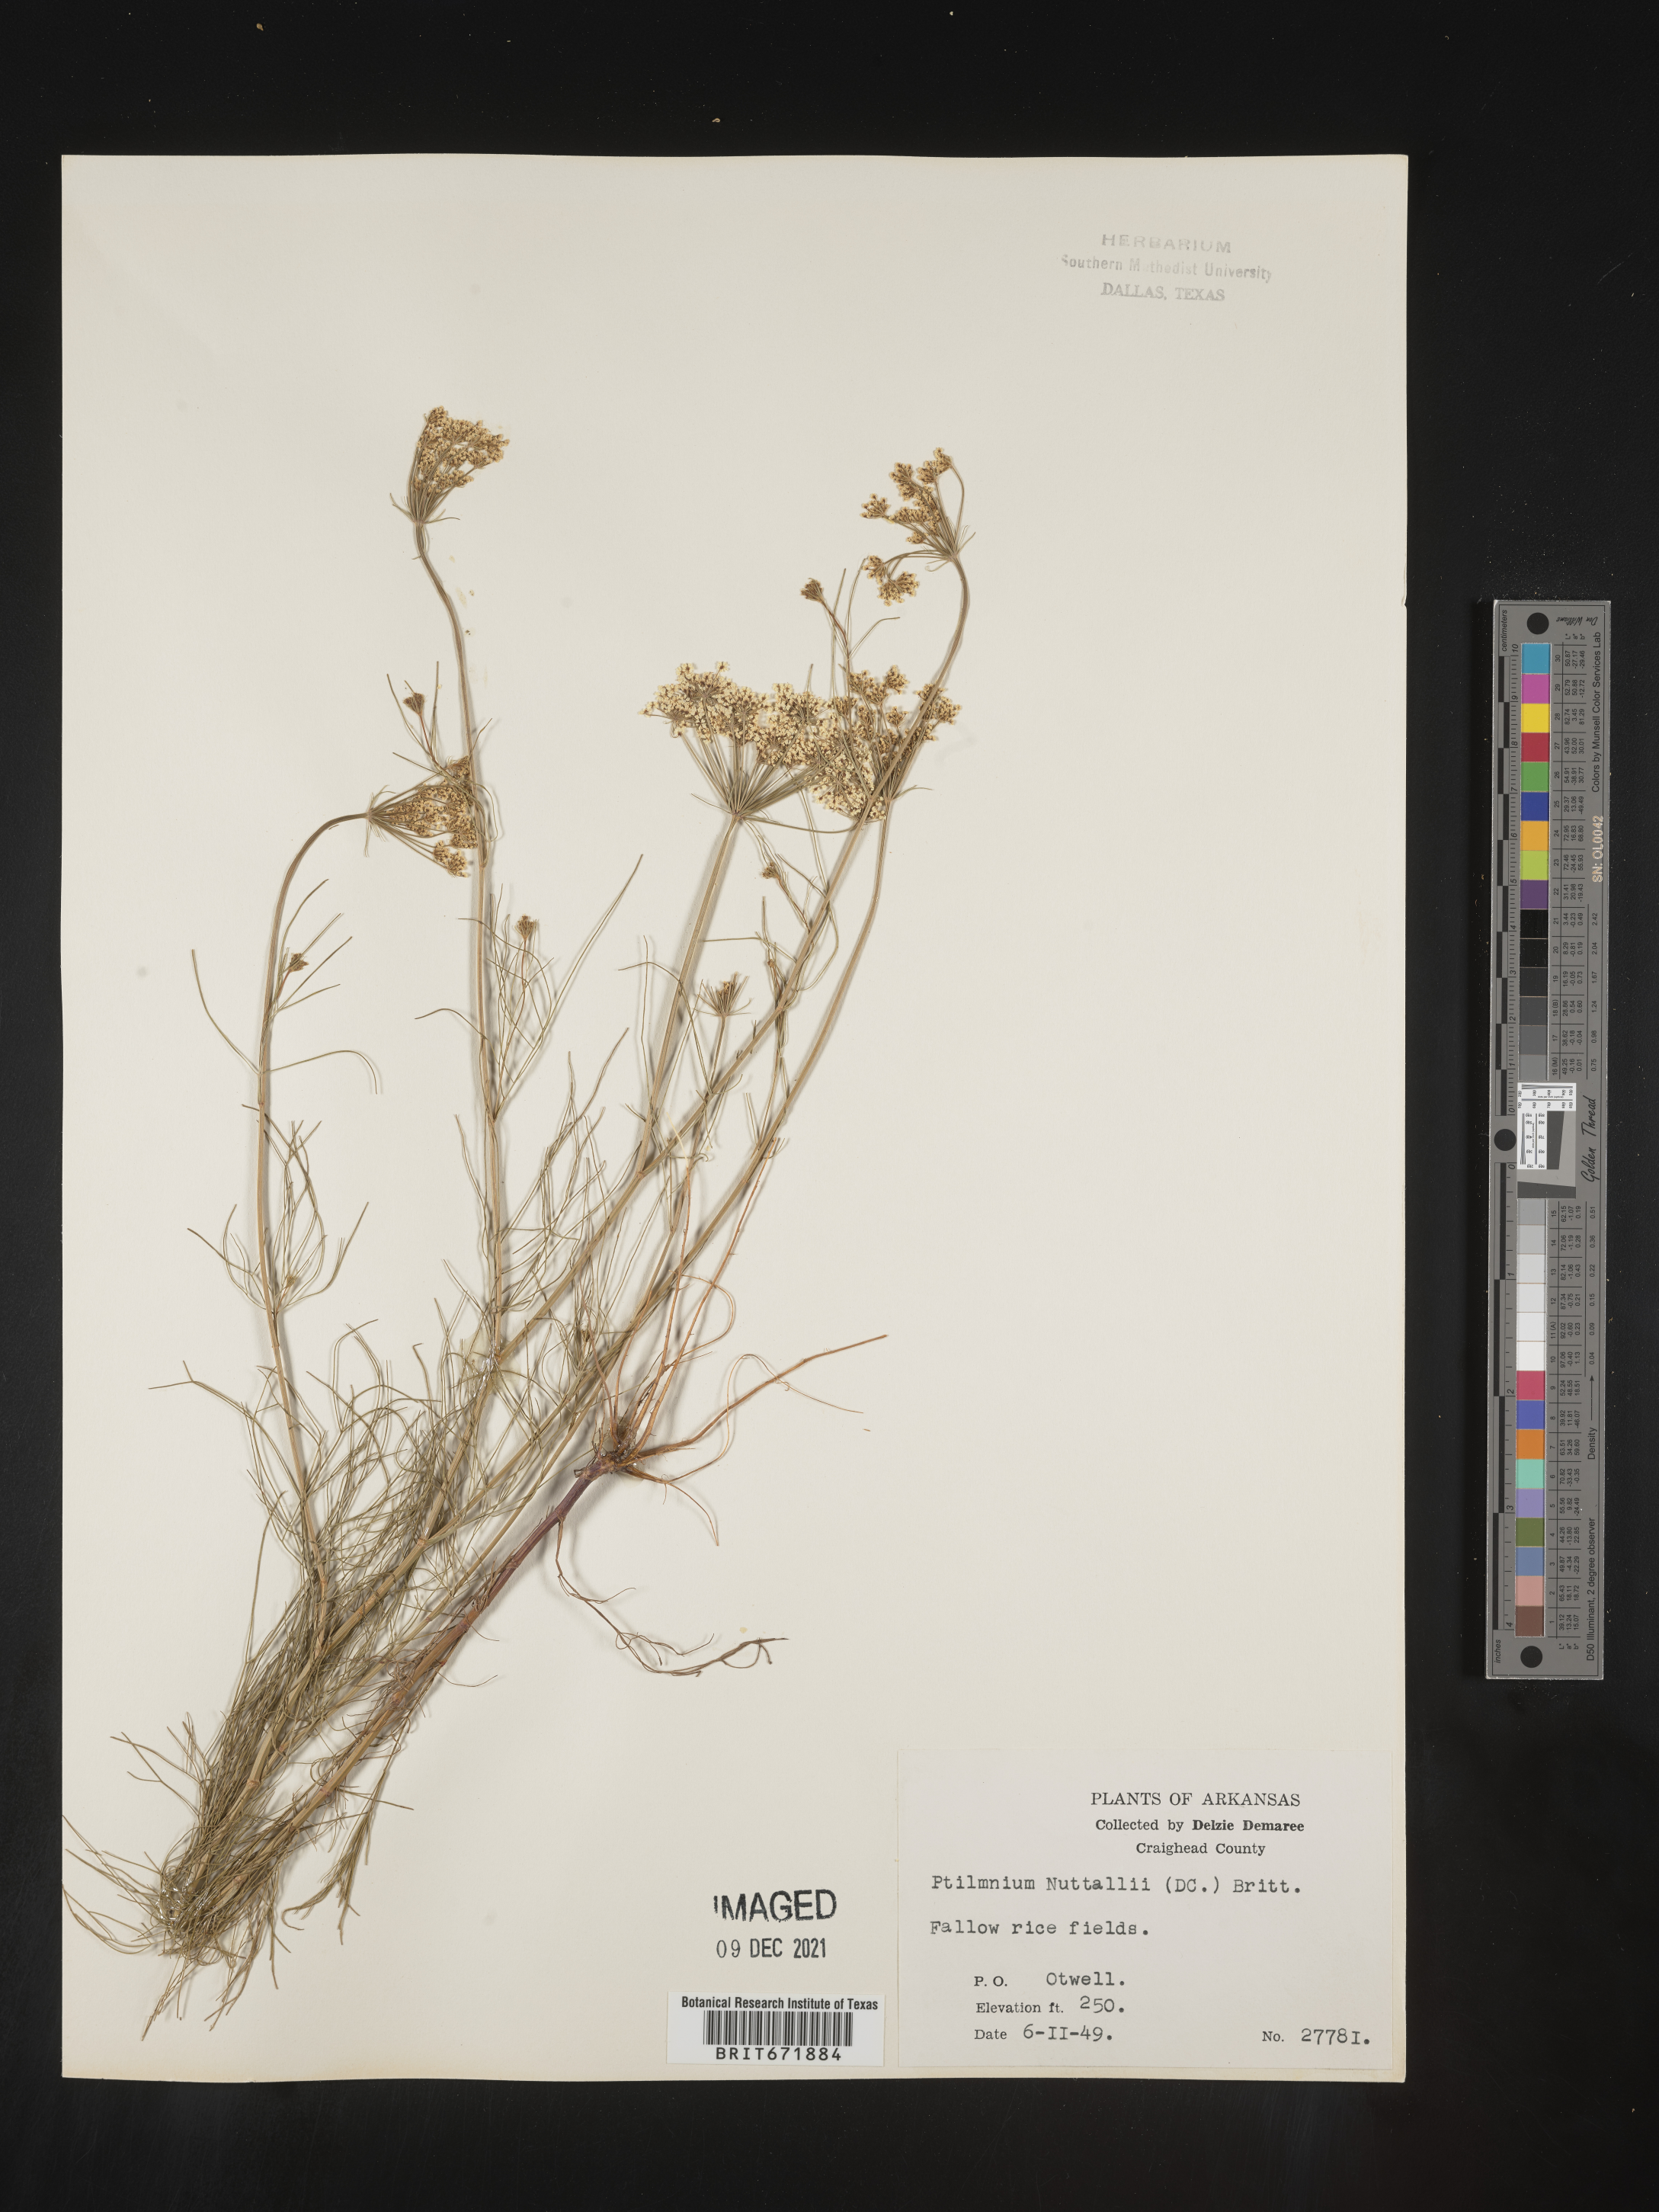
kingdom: Plantae
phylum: Tracheophyta
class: Magnoliopsida
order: Apiales
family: Apiaceae
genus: Ptilimnium
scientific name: Ptilimnium nuttallii
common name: Ozark bishop's-weed
